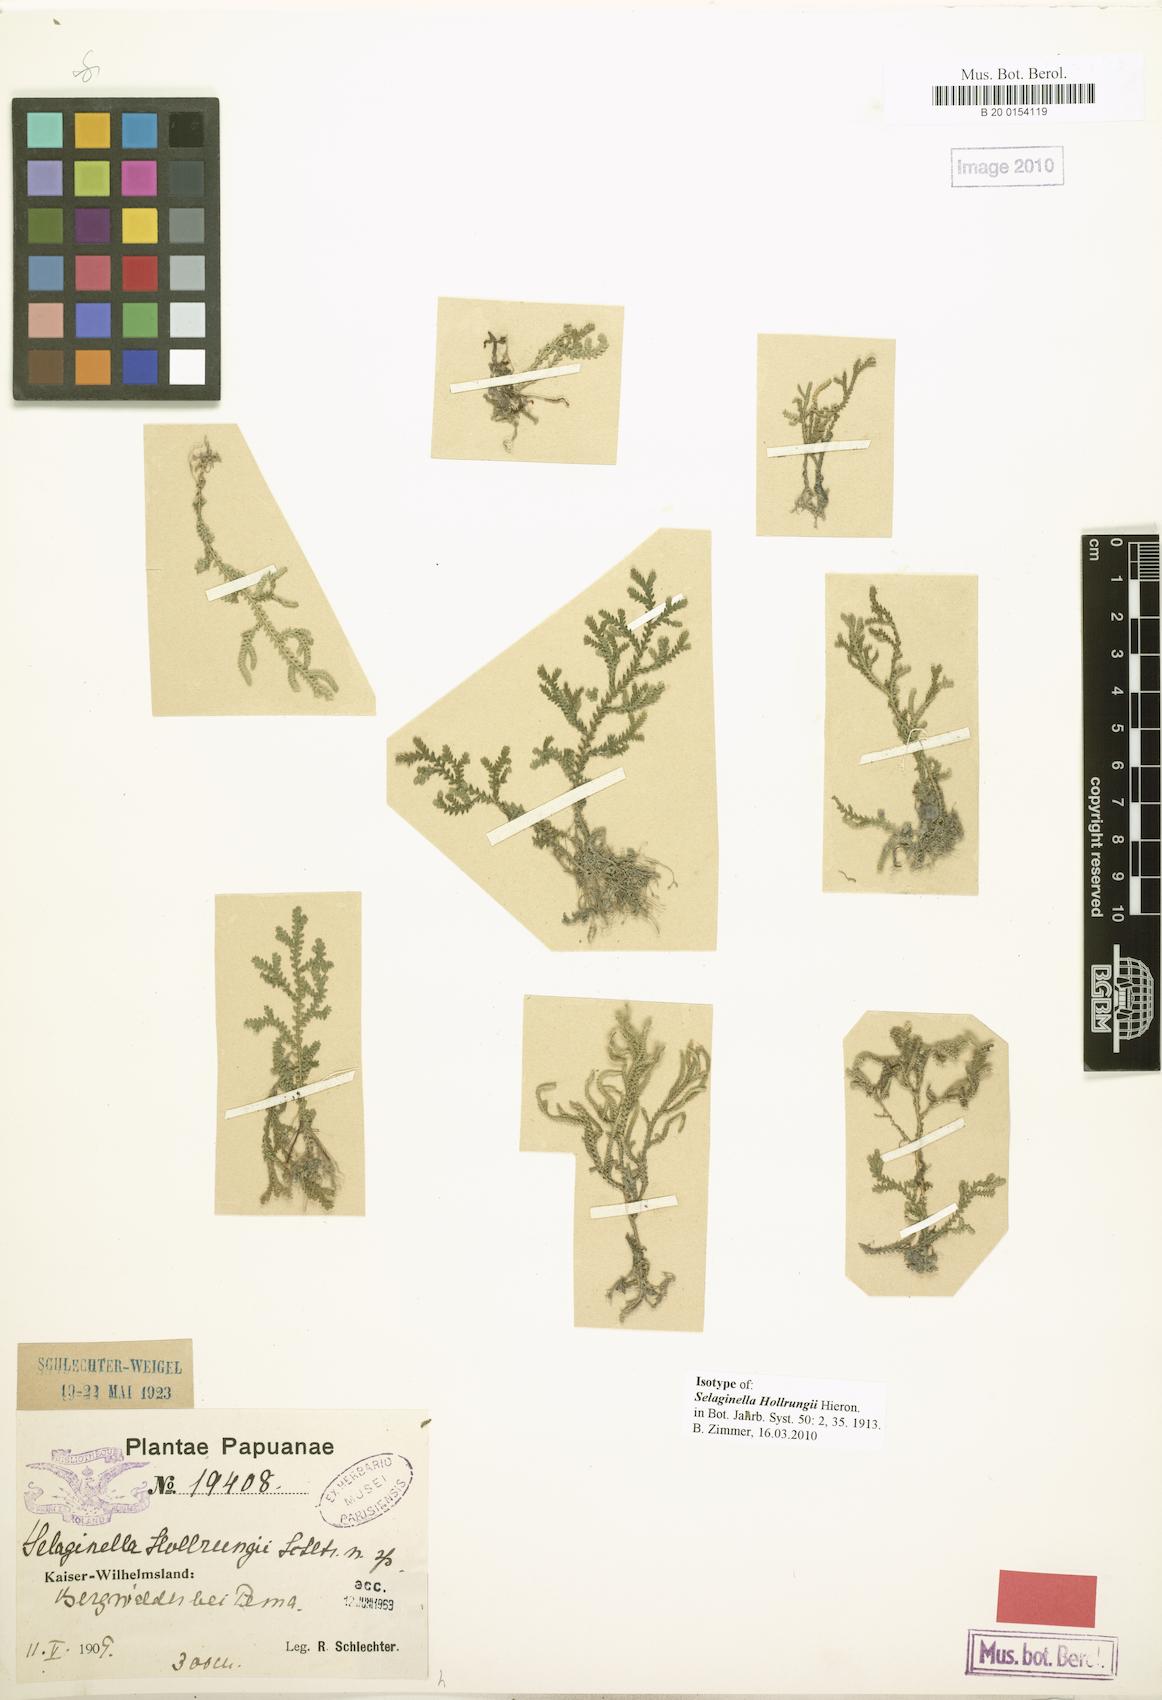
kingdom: Plantae
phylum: Tracheophyta
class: Lycopodiopsida
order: Selaginellales
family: Selaginellaceae
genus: Selaginella
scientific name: Selaginella hollrungii
